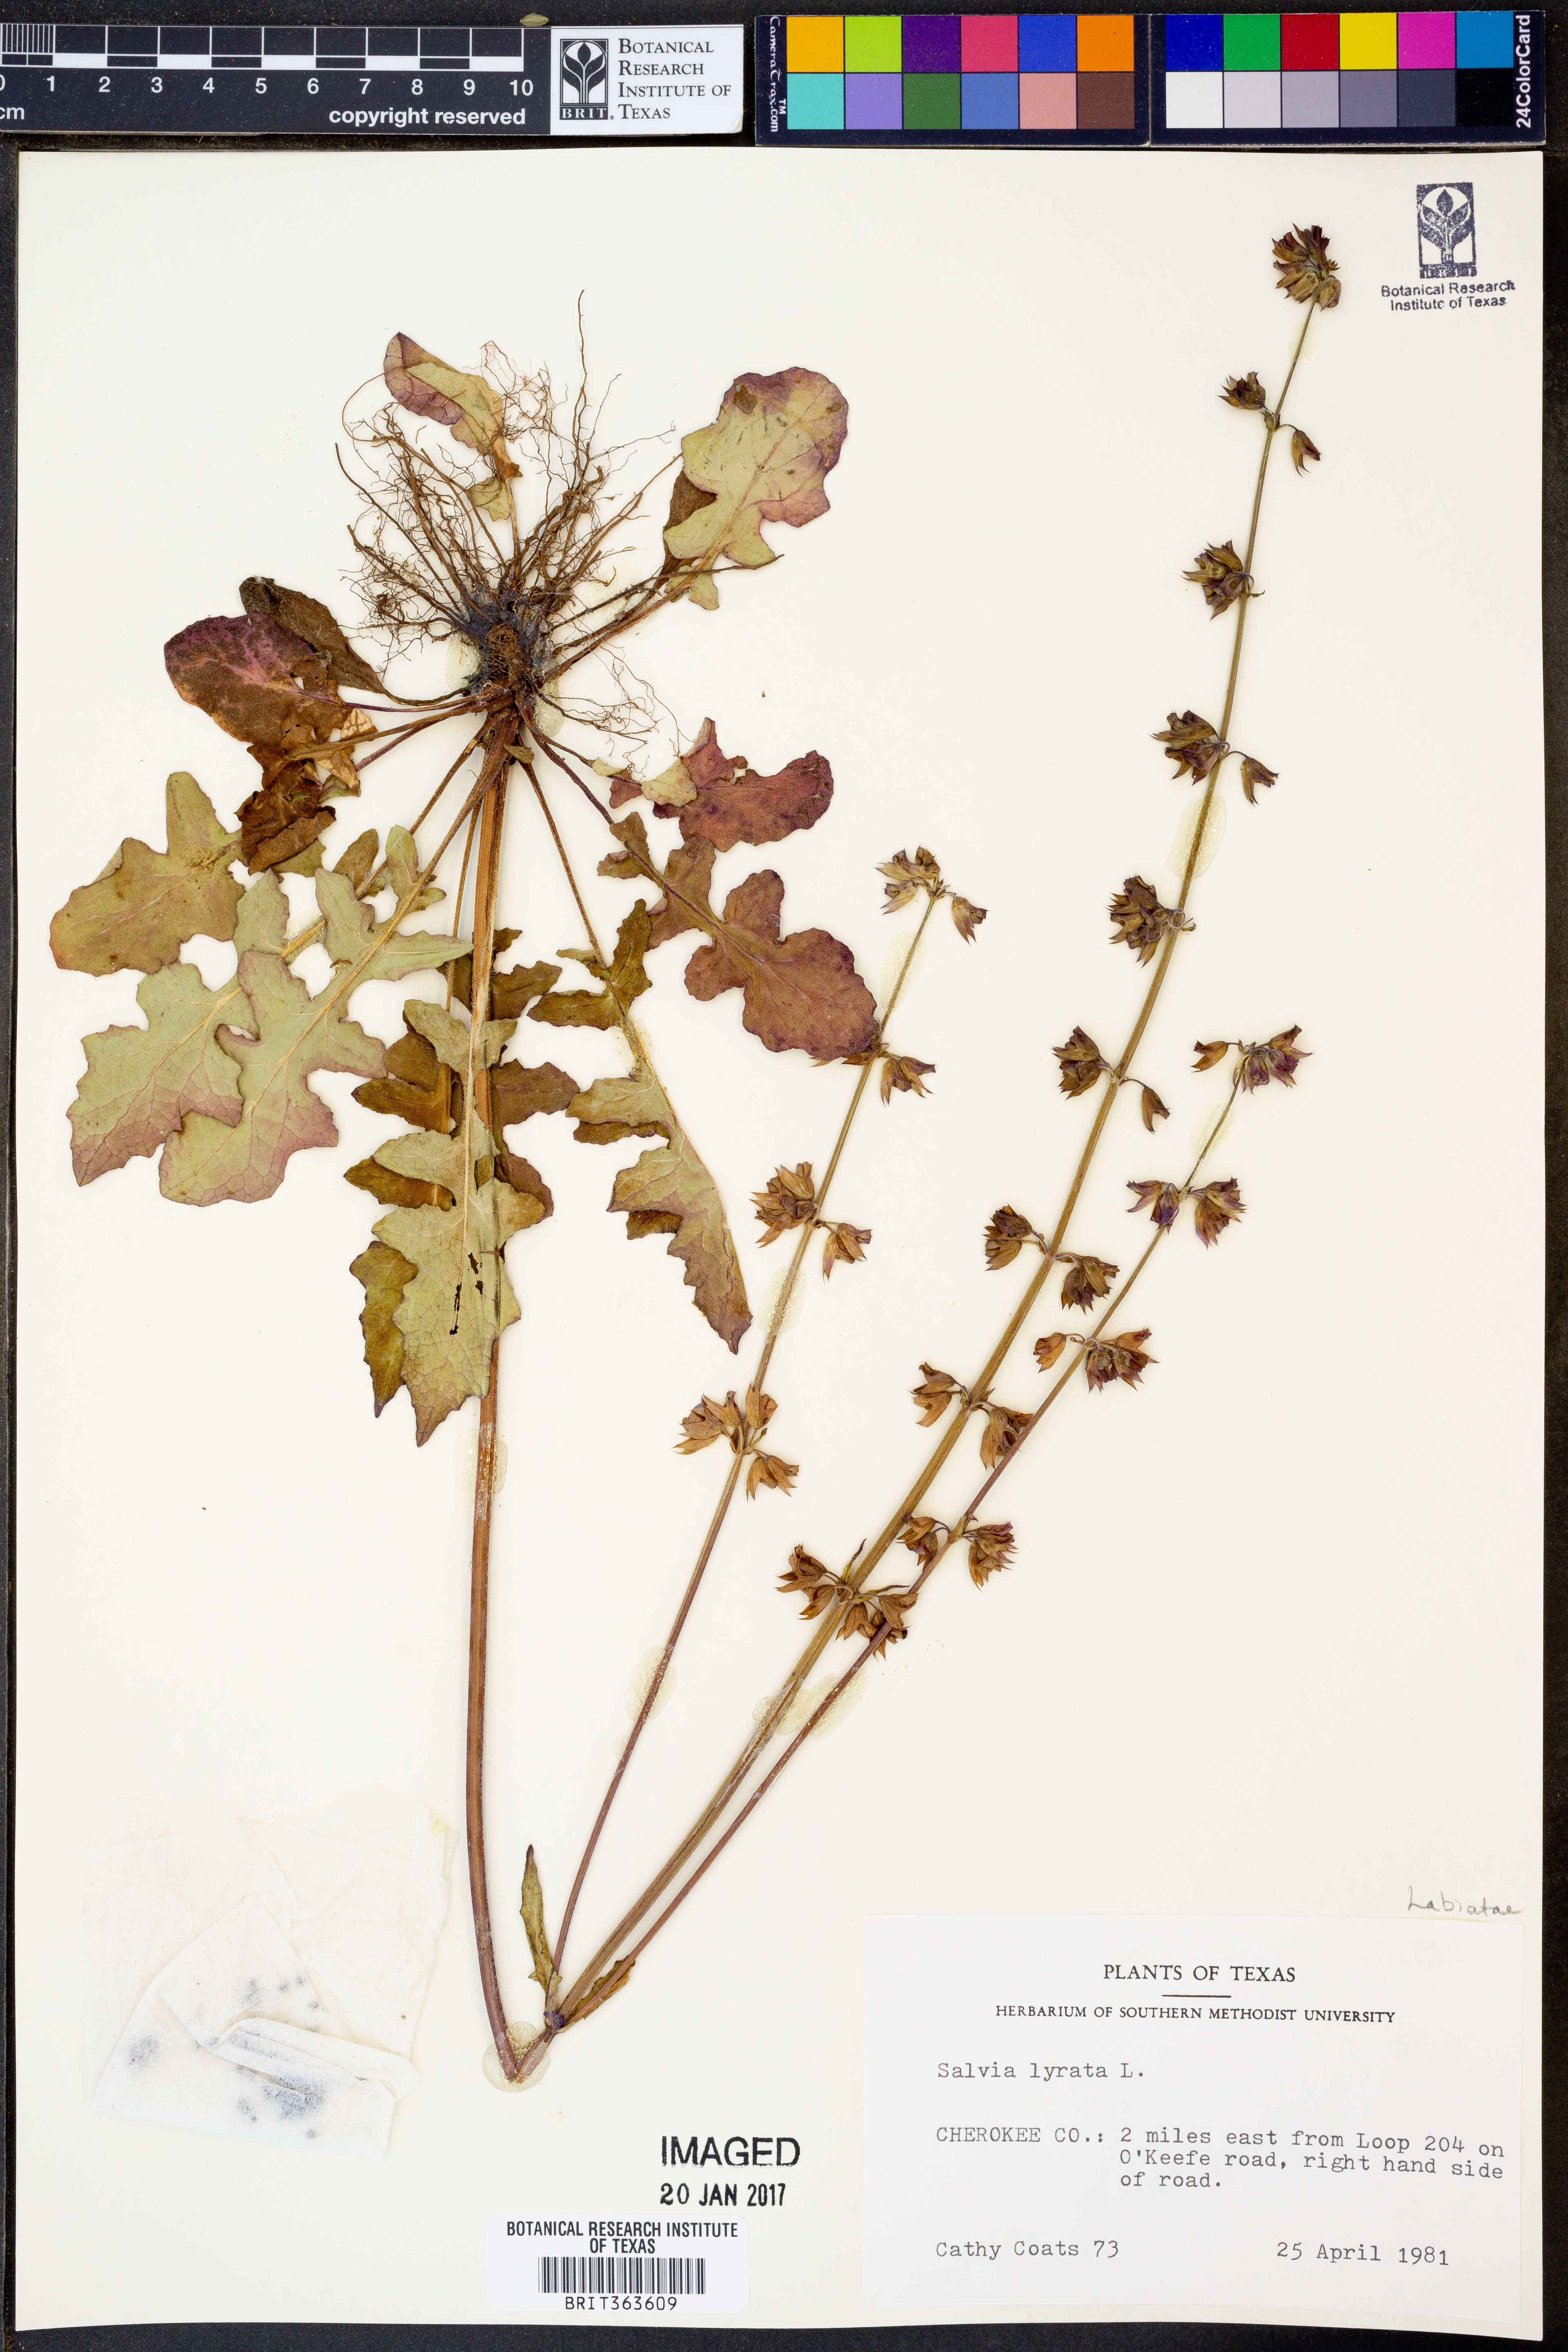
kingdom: Plantae
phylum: Tracheophyta
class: Magnoliopsida
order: Lamiales
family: Lamiaceae
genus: Salvia
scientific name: Salvia lyrata
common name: Cancerweed
